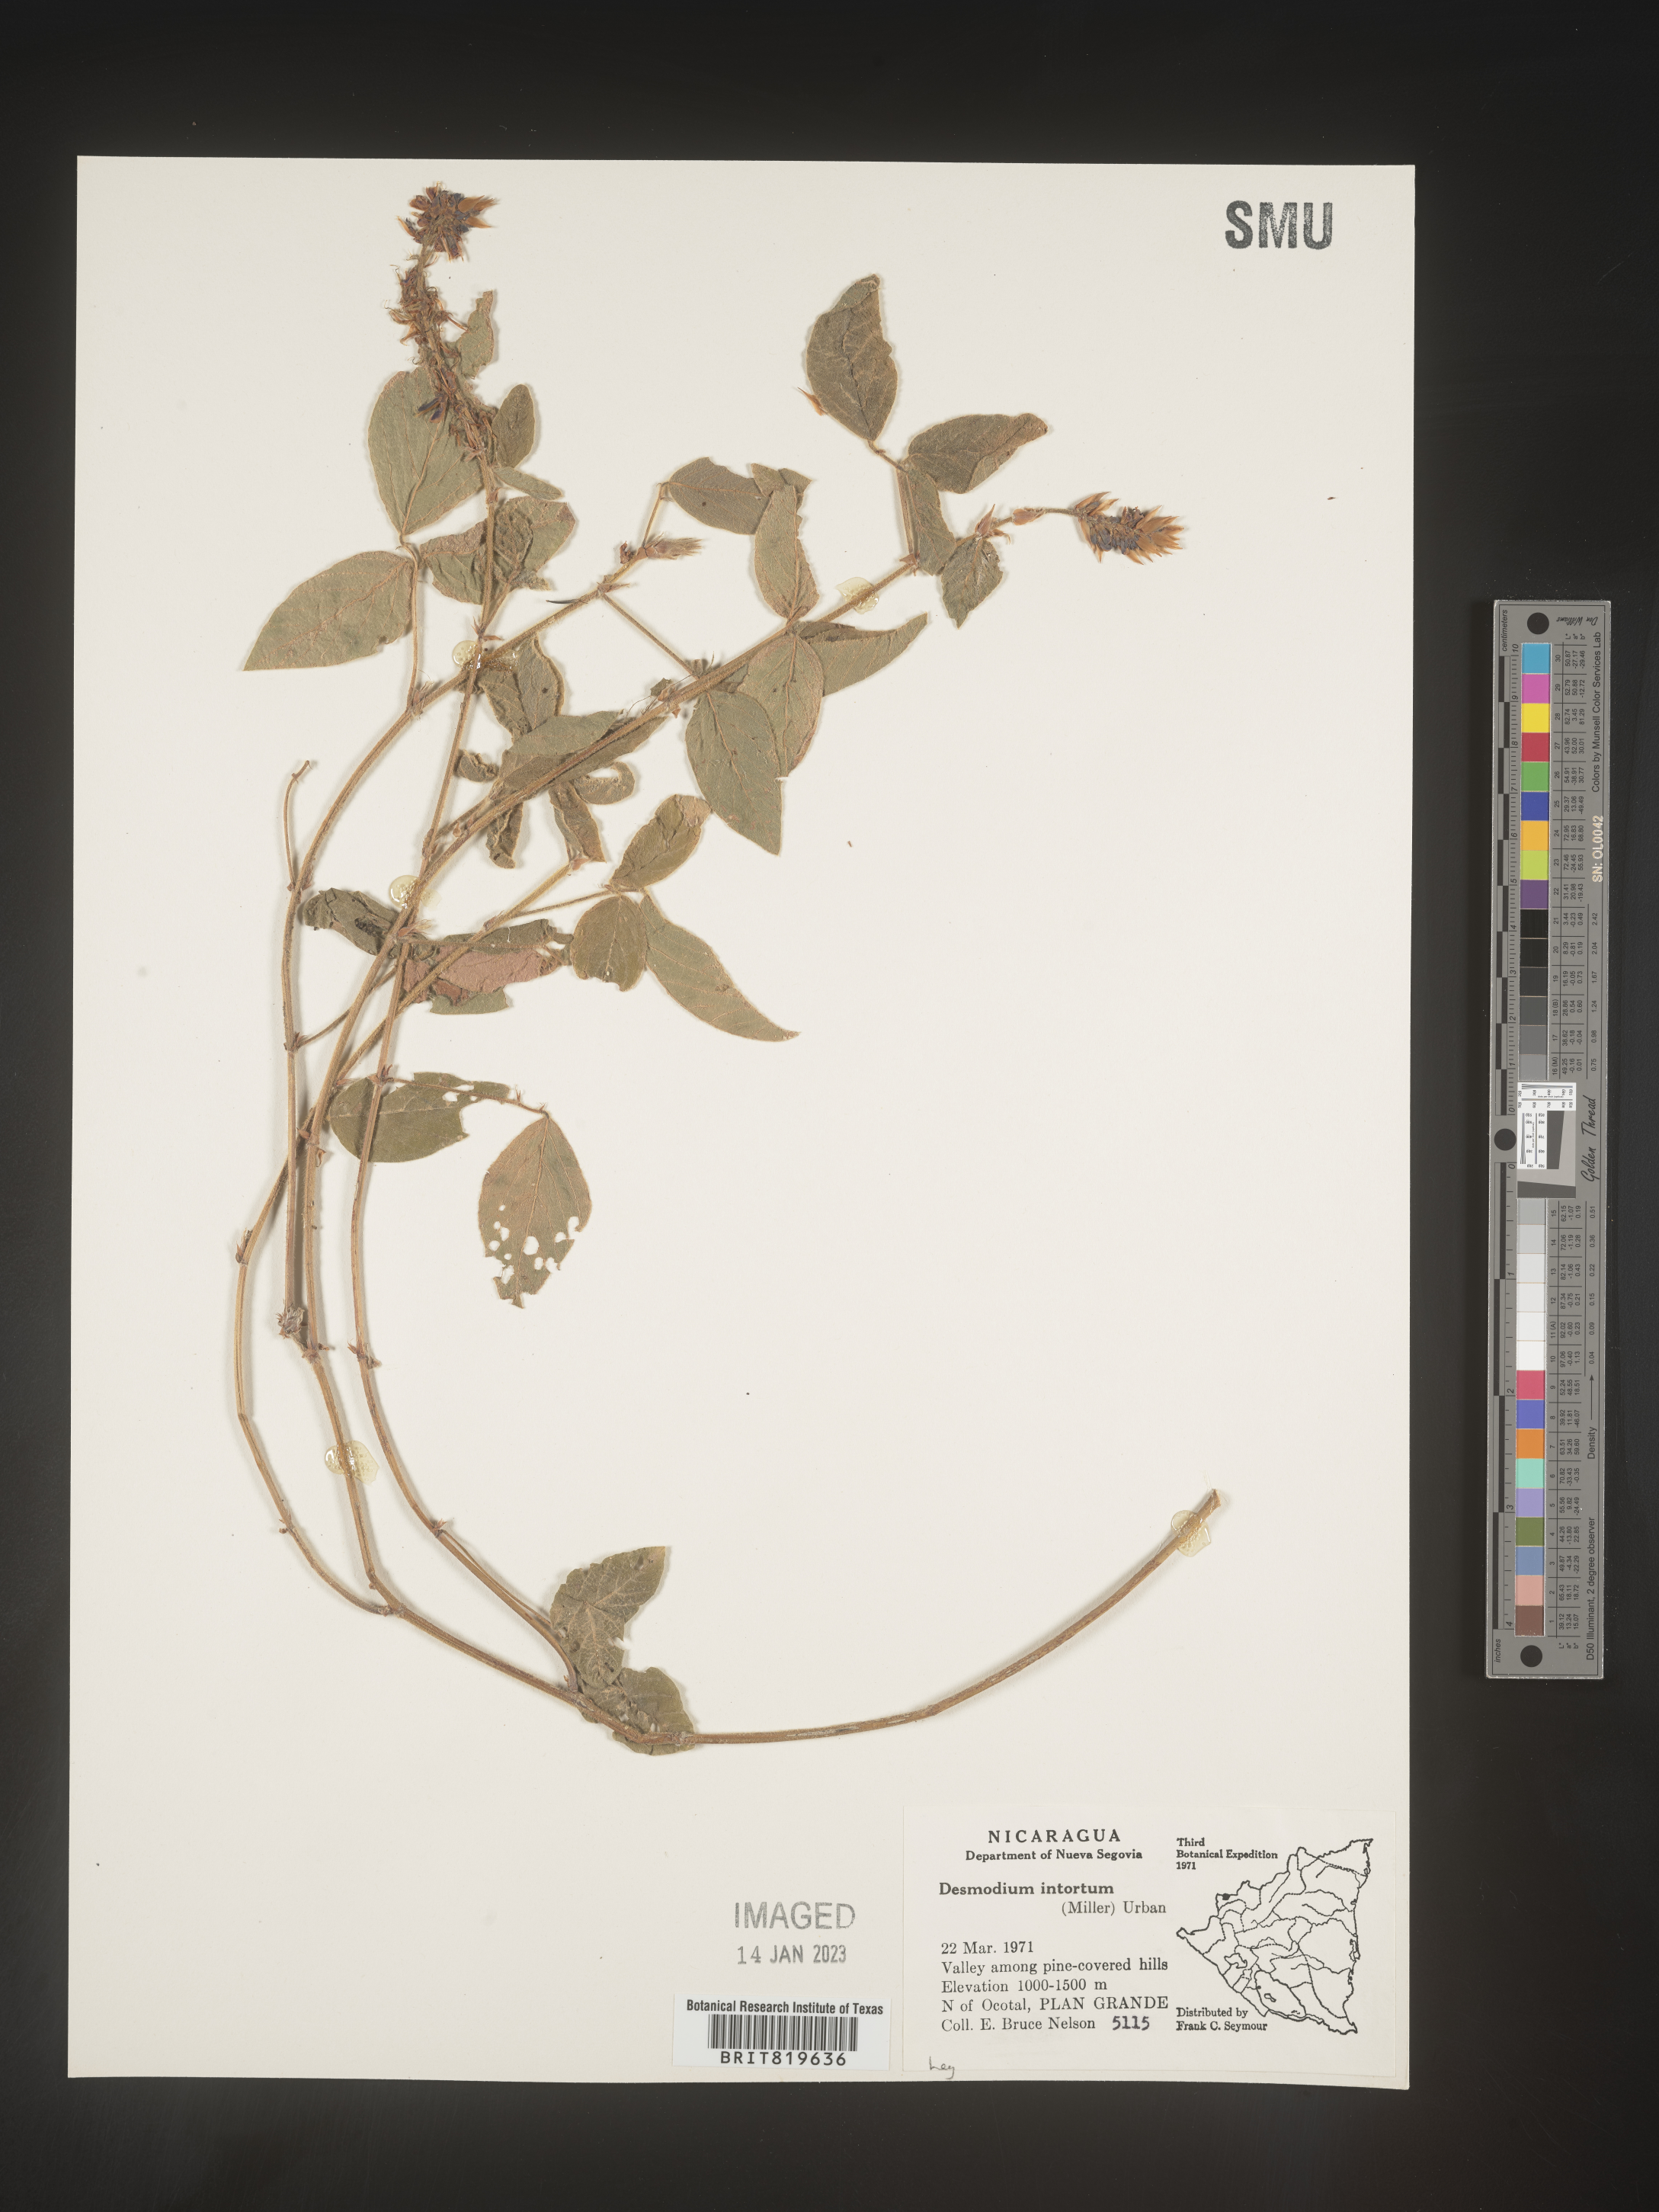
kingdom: Plantae
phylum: Tracheophyta
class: Magnoliopsida
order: Fabales
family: Fabaceae
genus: Desmodium
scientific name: Desmodium
